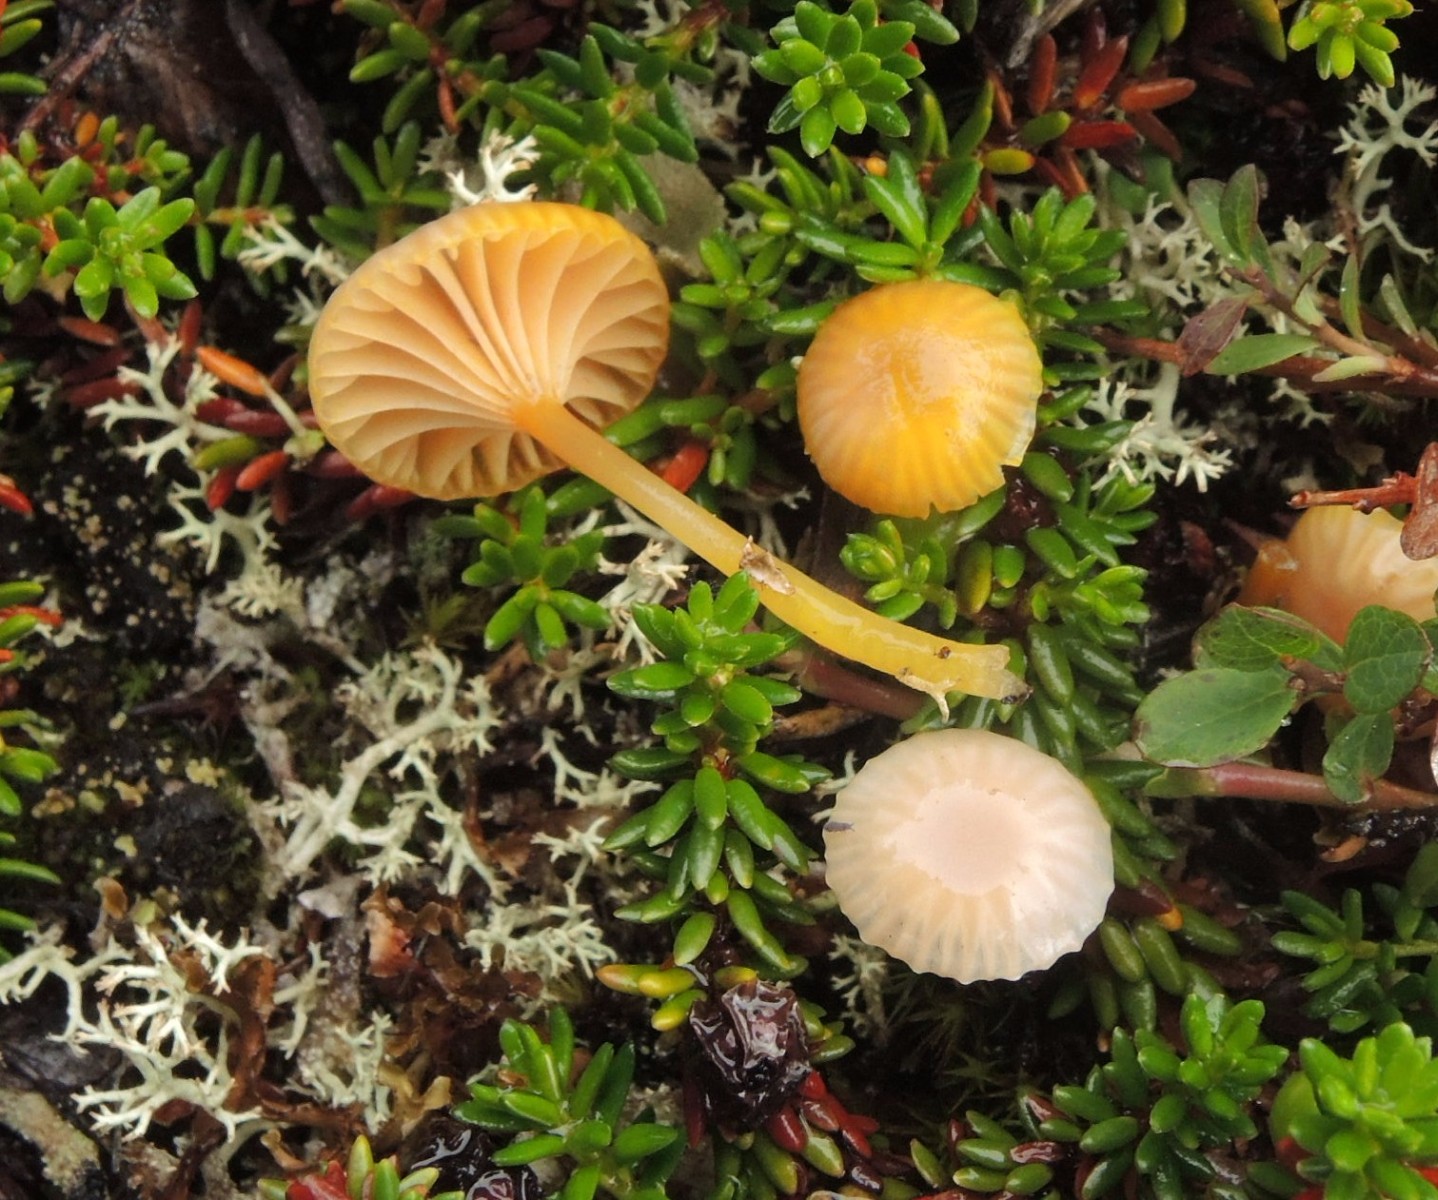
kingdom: Fungi
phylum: Basidiomycota
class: Agaricomycetes
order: Agaricales
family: Hygrophoraceae
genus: Chromosera
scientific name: Chromosera citrinopallida
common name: hvidgul vokshat
